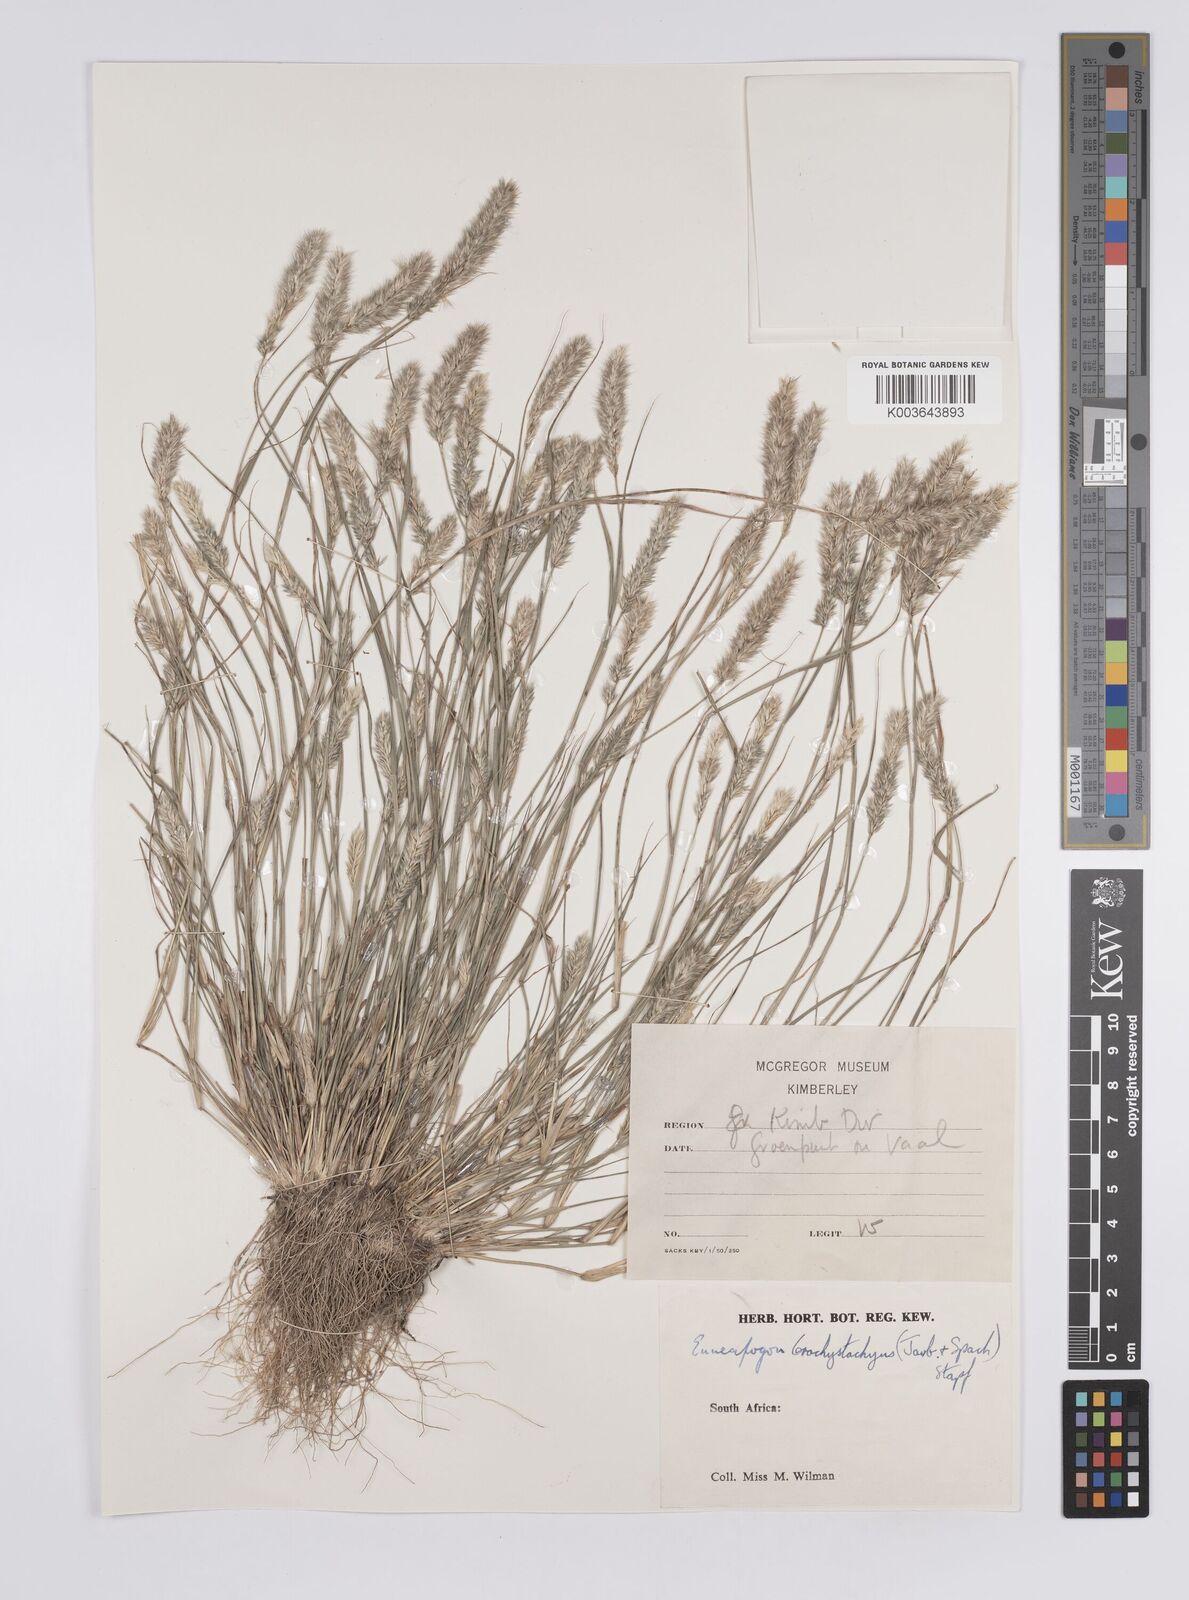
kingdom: Plantae
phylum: Tracheophyta
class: Liliopsida
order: Poales
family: Poaceae
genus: Enneapogon
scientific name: Enneapogon desvauxii
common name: Feather pappus grass
